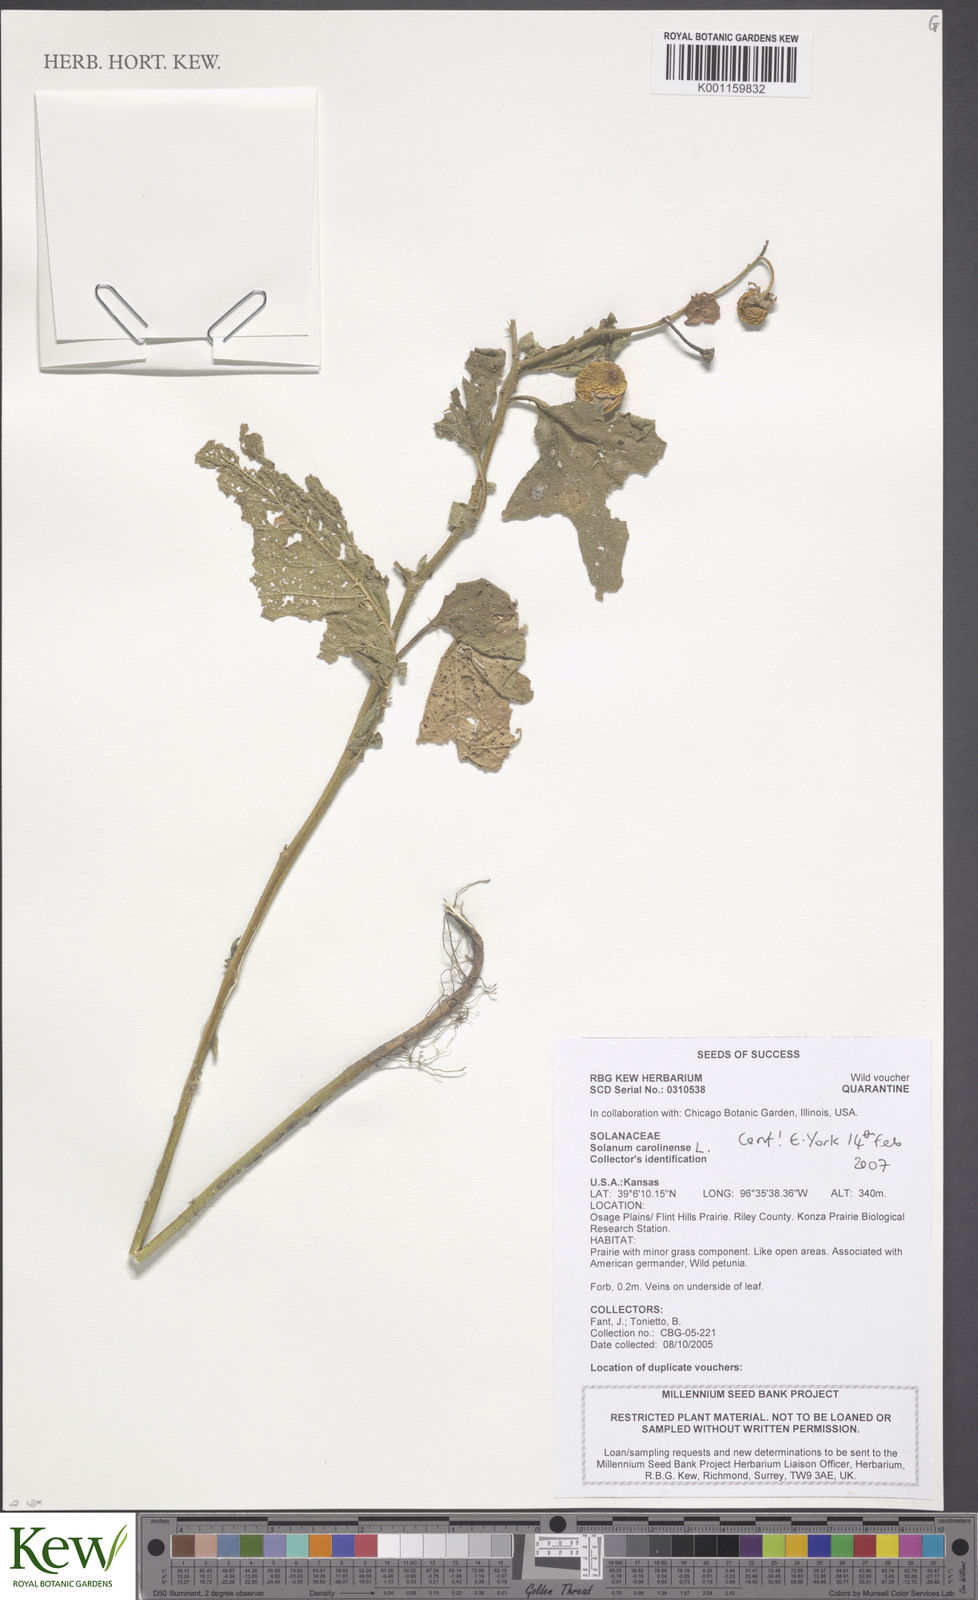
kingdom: Plantae
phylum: Tracheophyta
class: Magnoliopsida
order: Solanales
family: Solanaceae
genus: Solanum
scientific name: Solanum carolinense
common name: Horse-nettle
